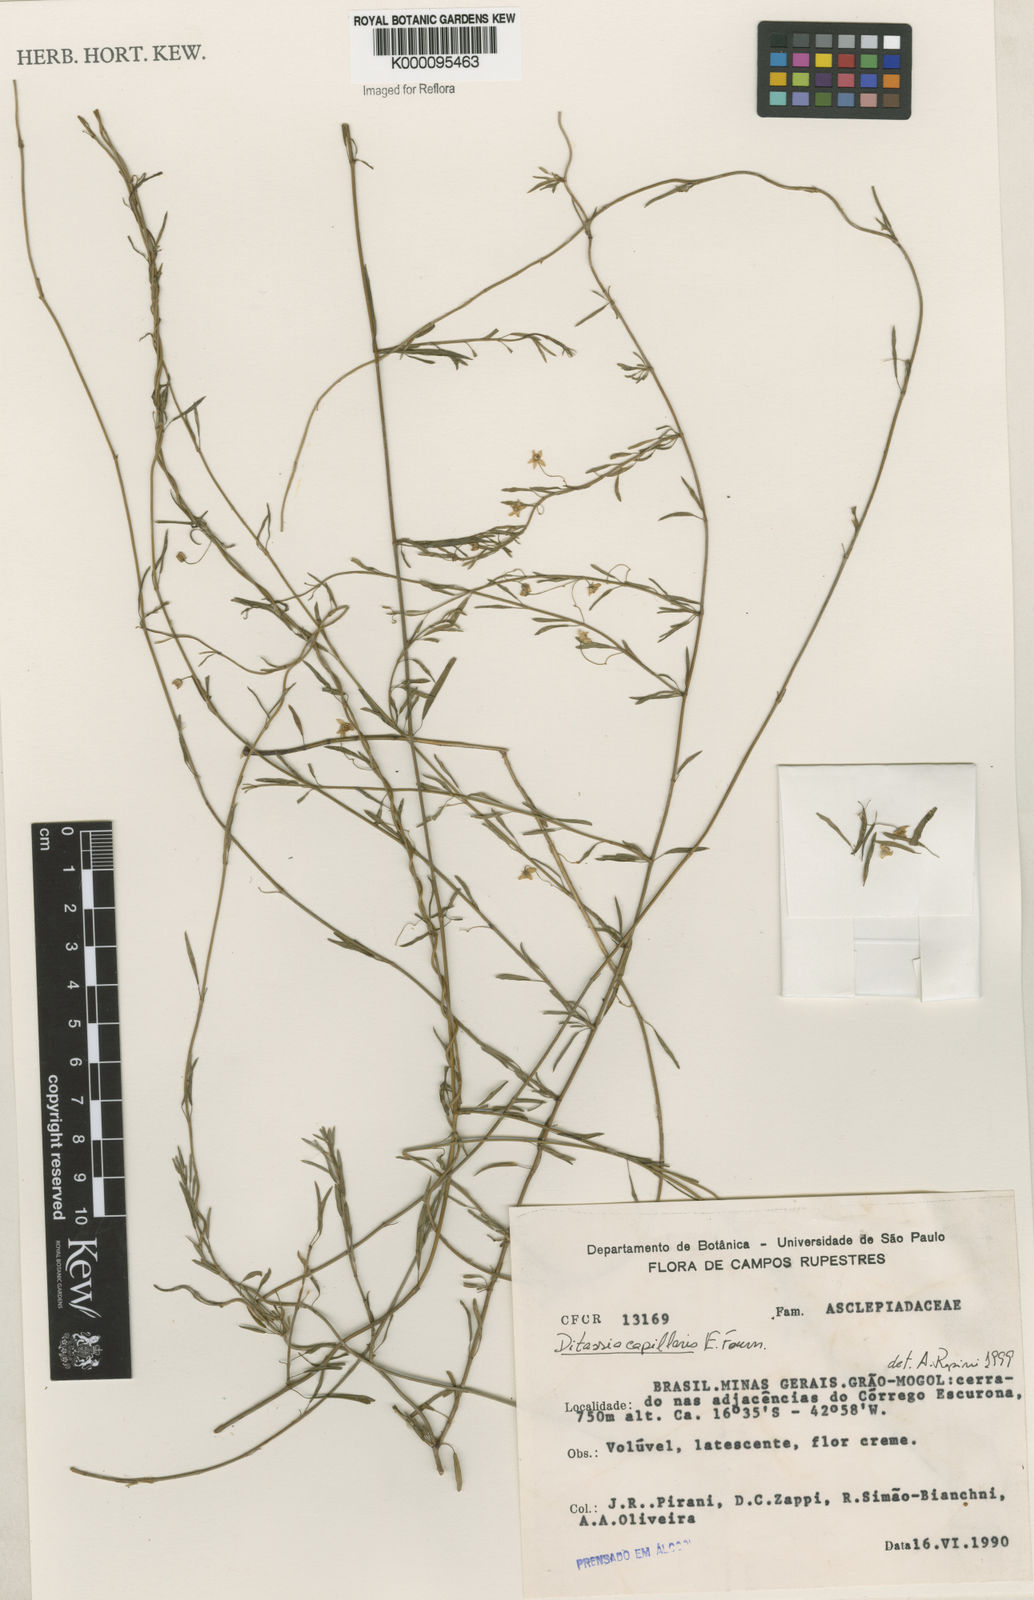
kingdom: Plantae
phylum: Tracheophyta
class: Magnoliopsida
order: Gentianales
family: Apocynaceae
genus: Ditassa
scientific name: Ditassa capillaris
